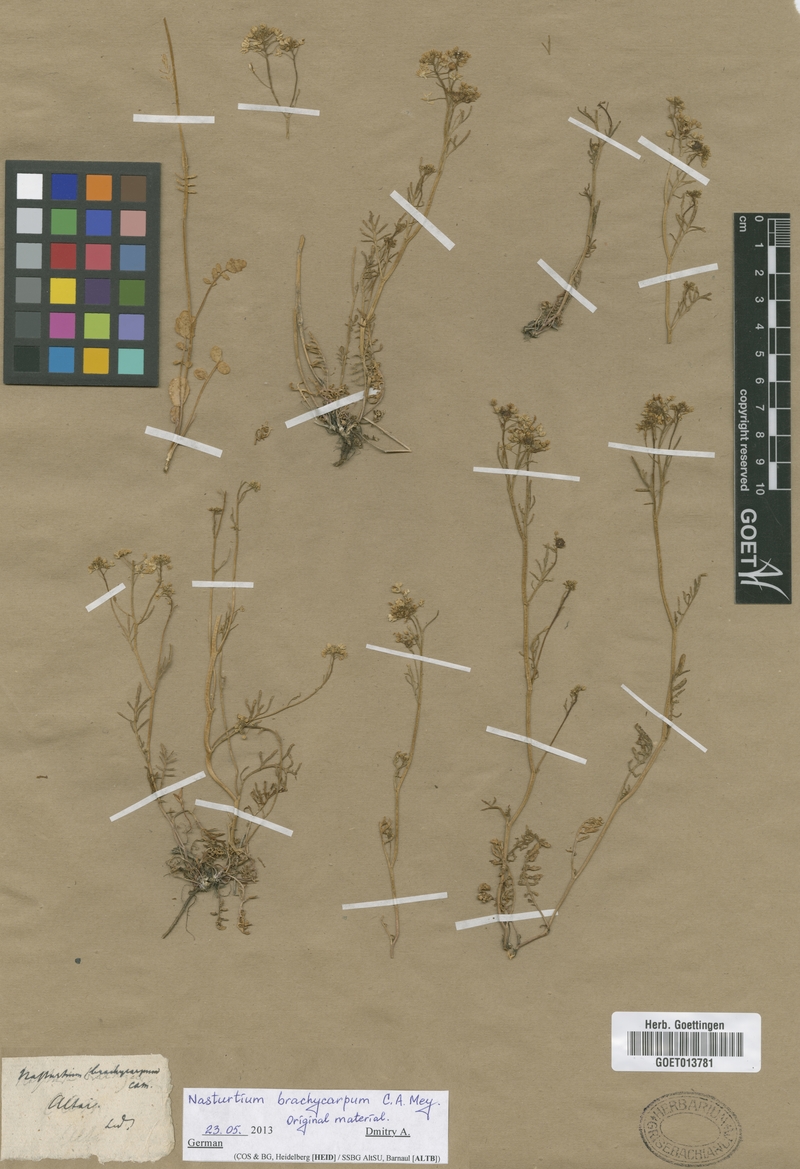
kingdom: Plantae
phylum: Tracheophyta
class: Magnoliopsida
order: Brassicales
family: Brassicaceae
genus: Rorippa
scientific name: Rorippa brachycarpa
